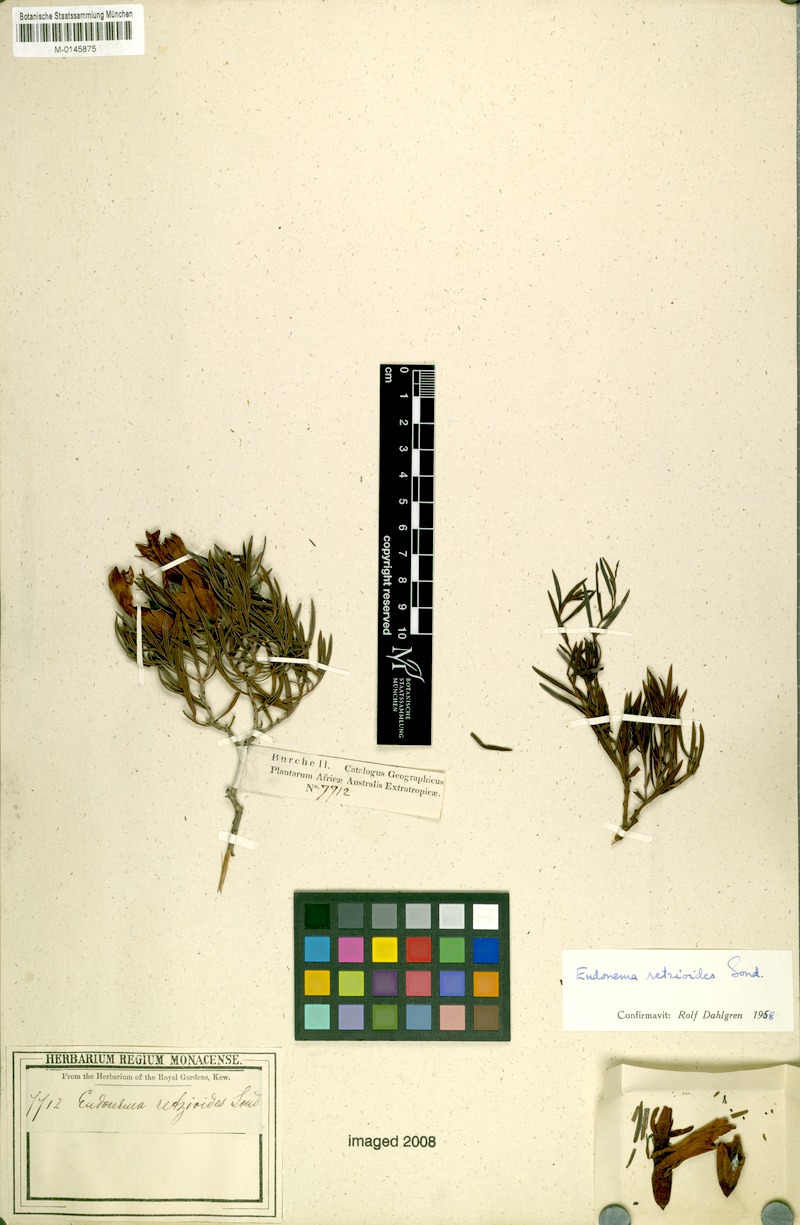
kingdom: Plantae
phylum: Tracheophyta
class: Magnoliopsida
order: Myrtales
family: Penaeaceae
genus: Endonema
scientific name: Endonema retzioides
